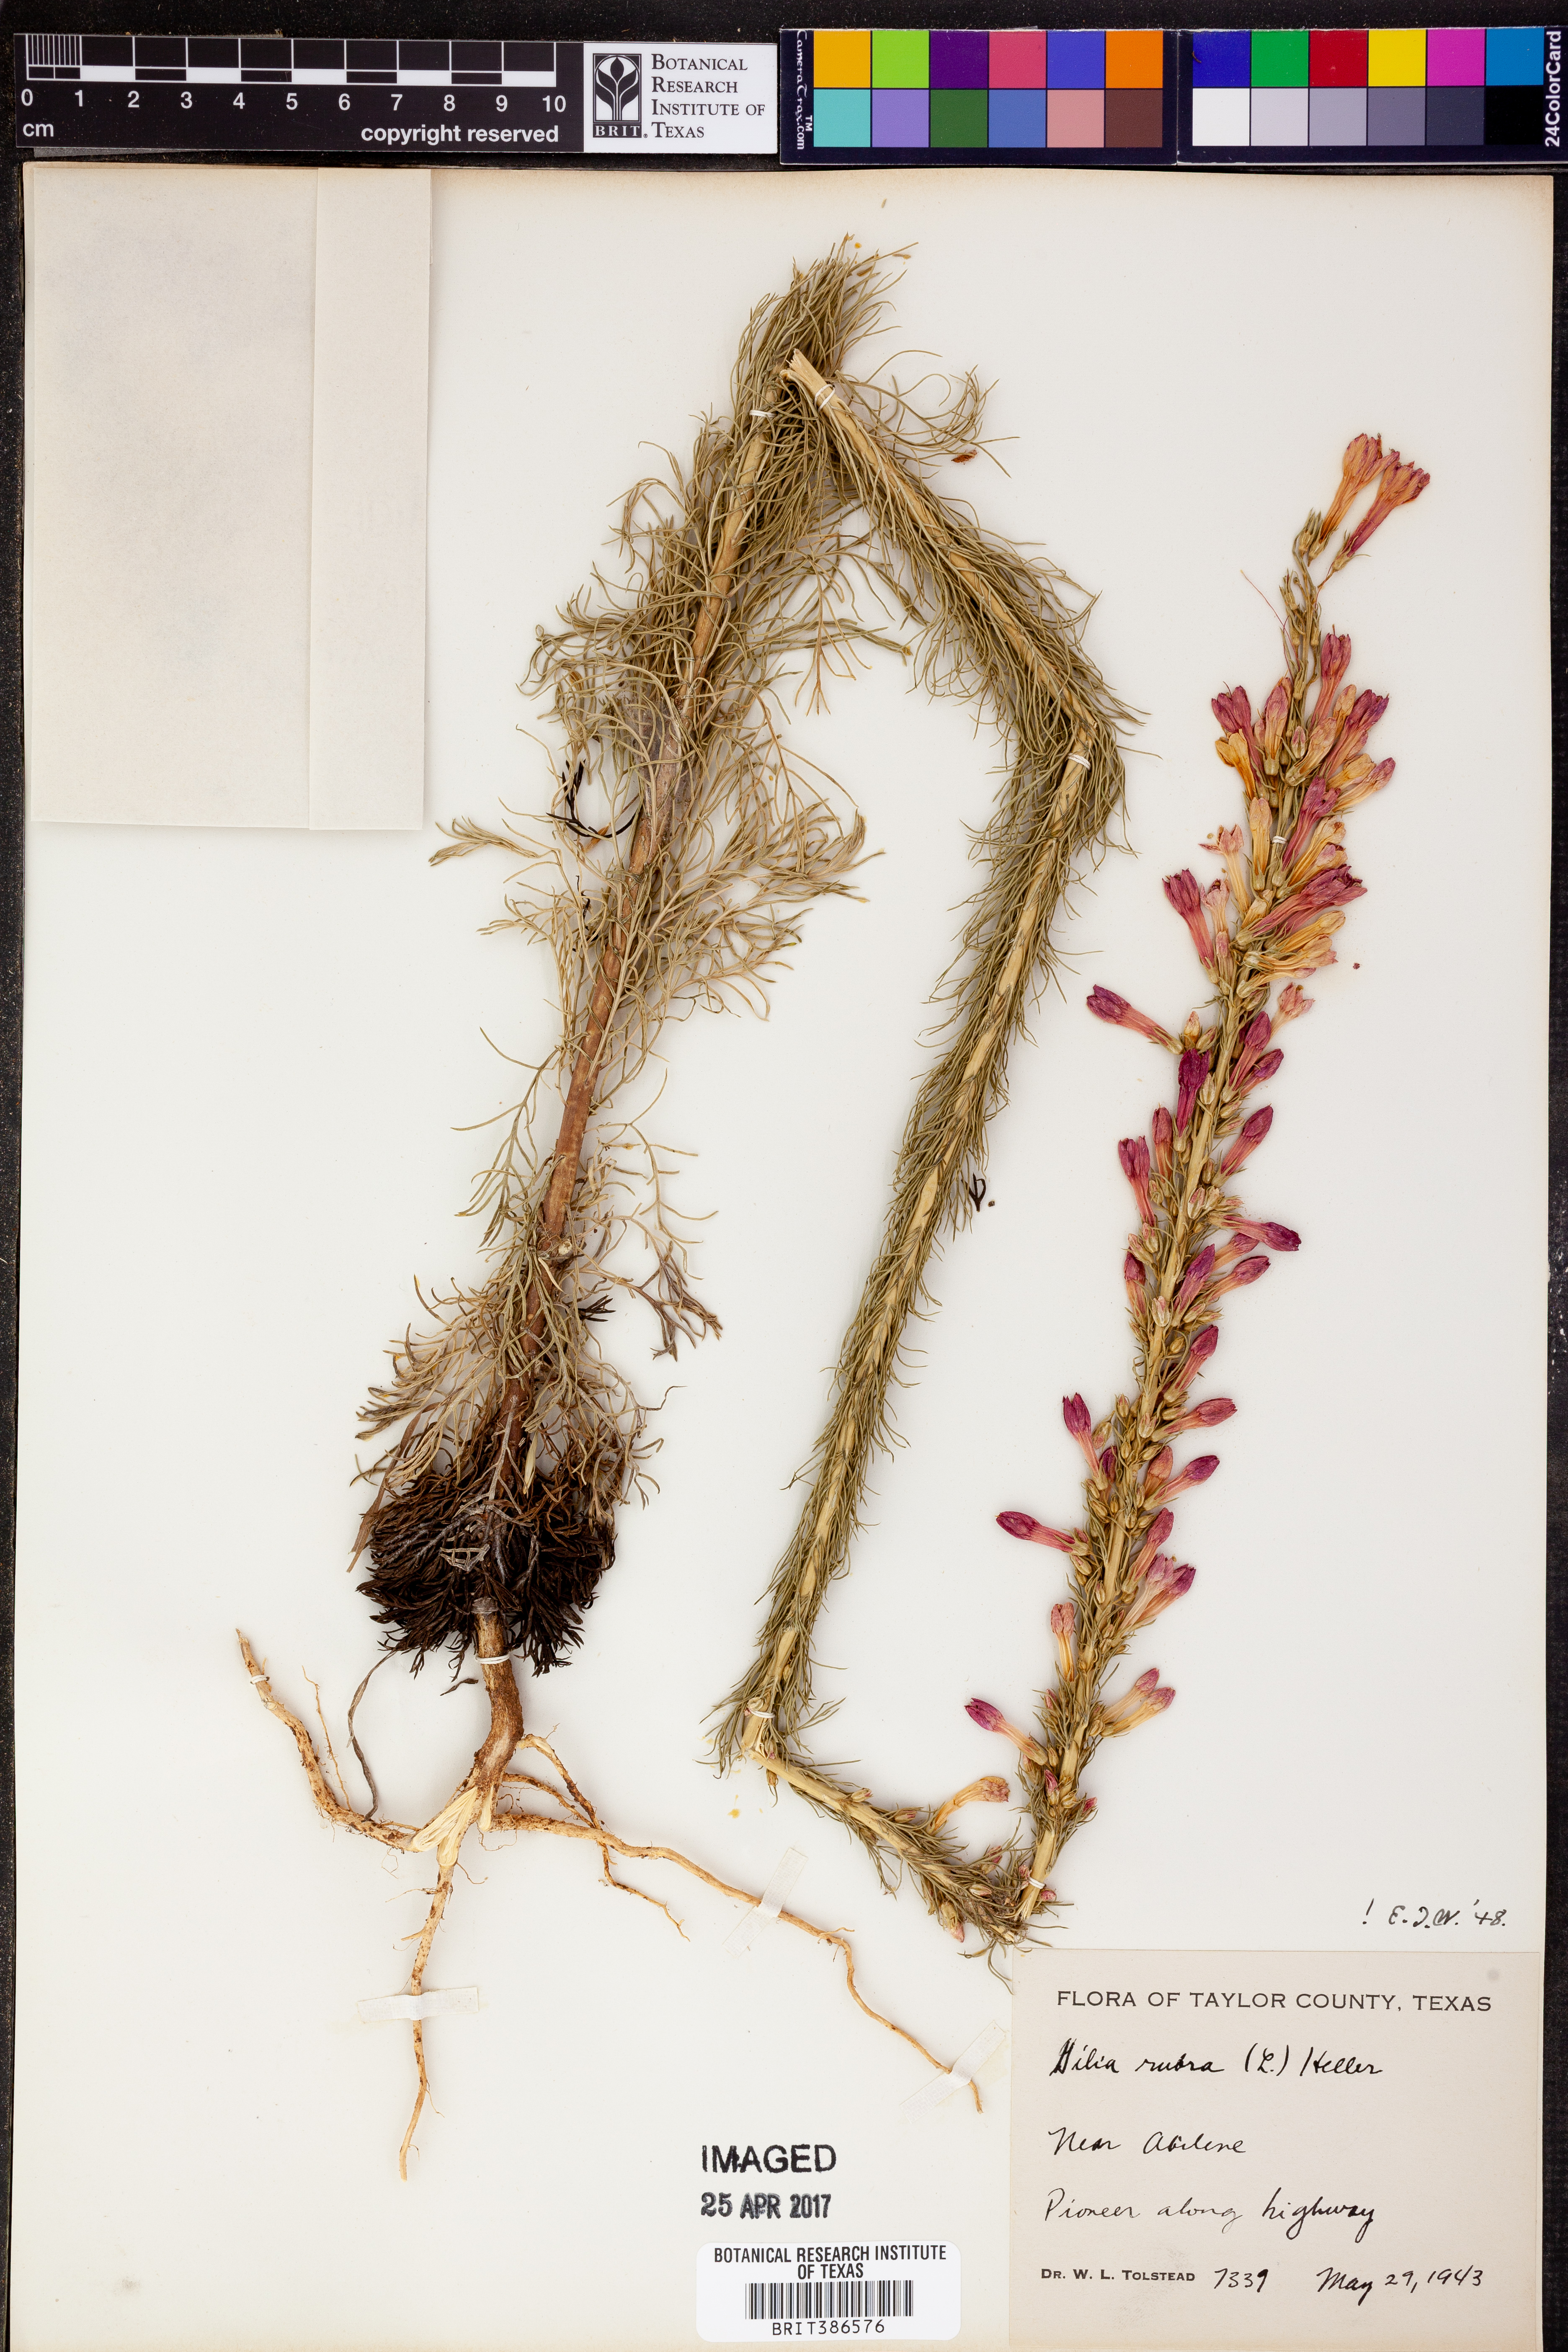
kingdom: Plantae
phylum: Tracheophyta
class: Magnoliopsida
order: Ericales
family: Polemoniaceae
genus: Ipomopsis
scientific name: Ipomopsis rubra
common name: Skyrocket
